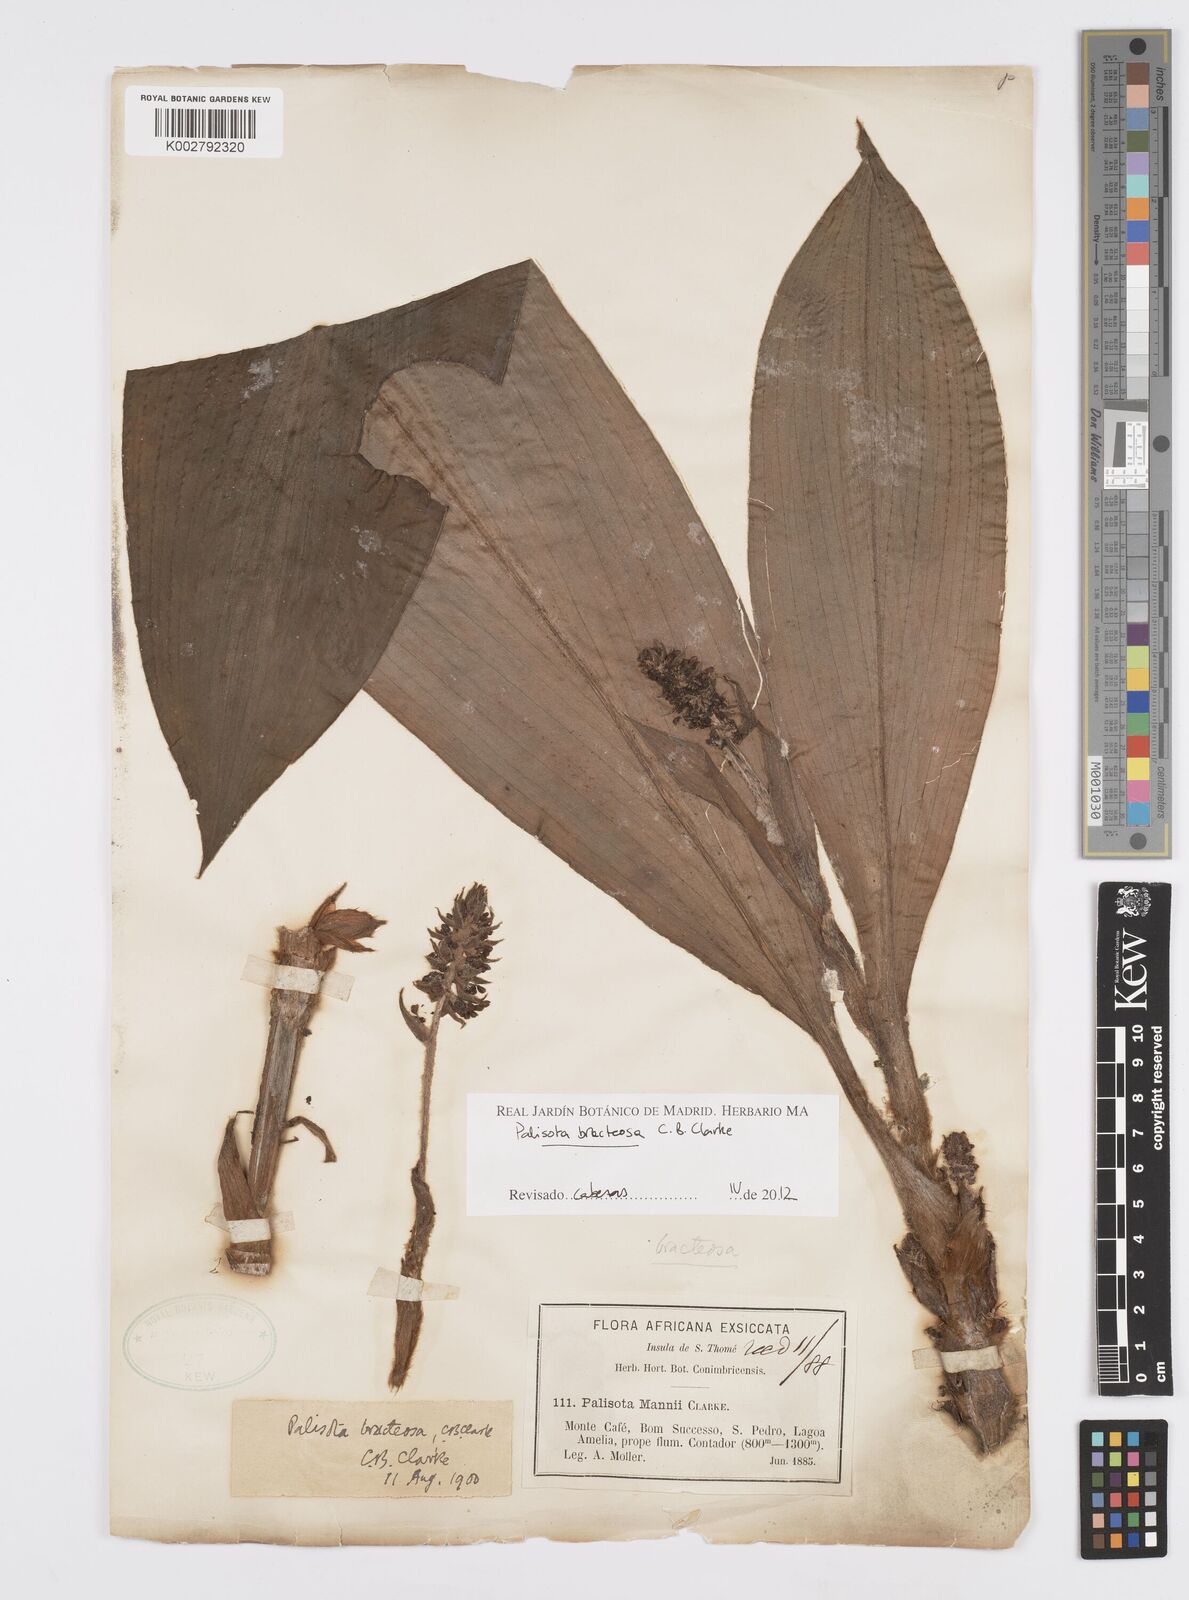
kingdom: Plantae
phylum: Tracheophyta
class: Liliopsida
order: Commelinales
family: Commelinaceae
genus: Palisota
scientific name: Palisota bracteosa
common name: Palisota
